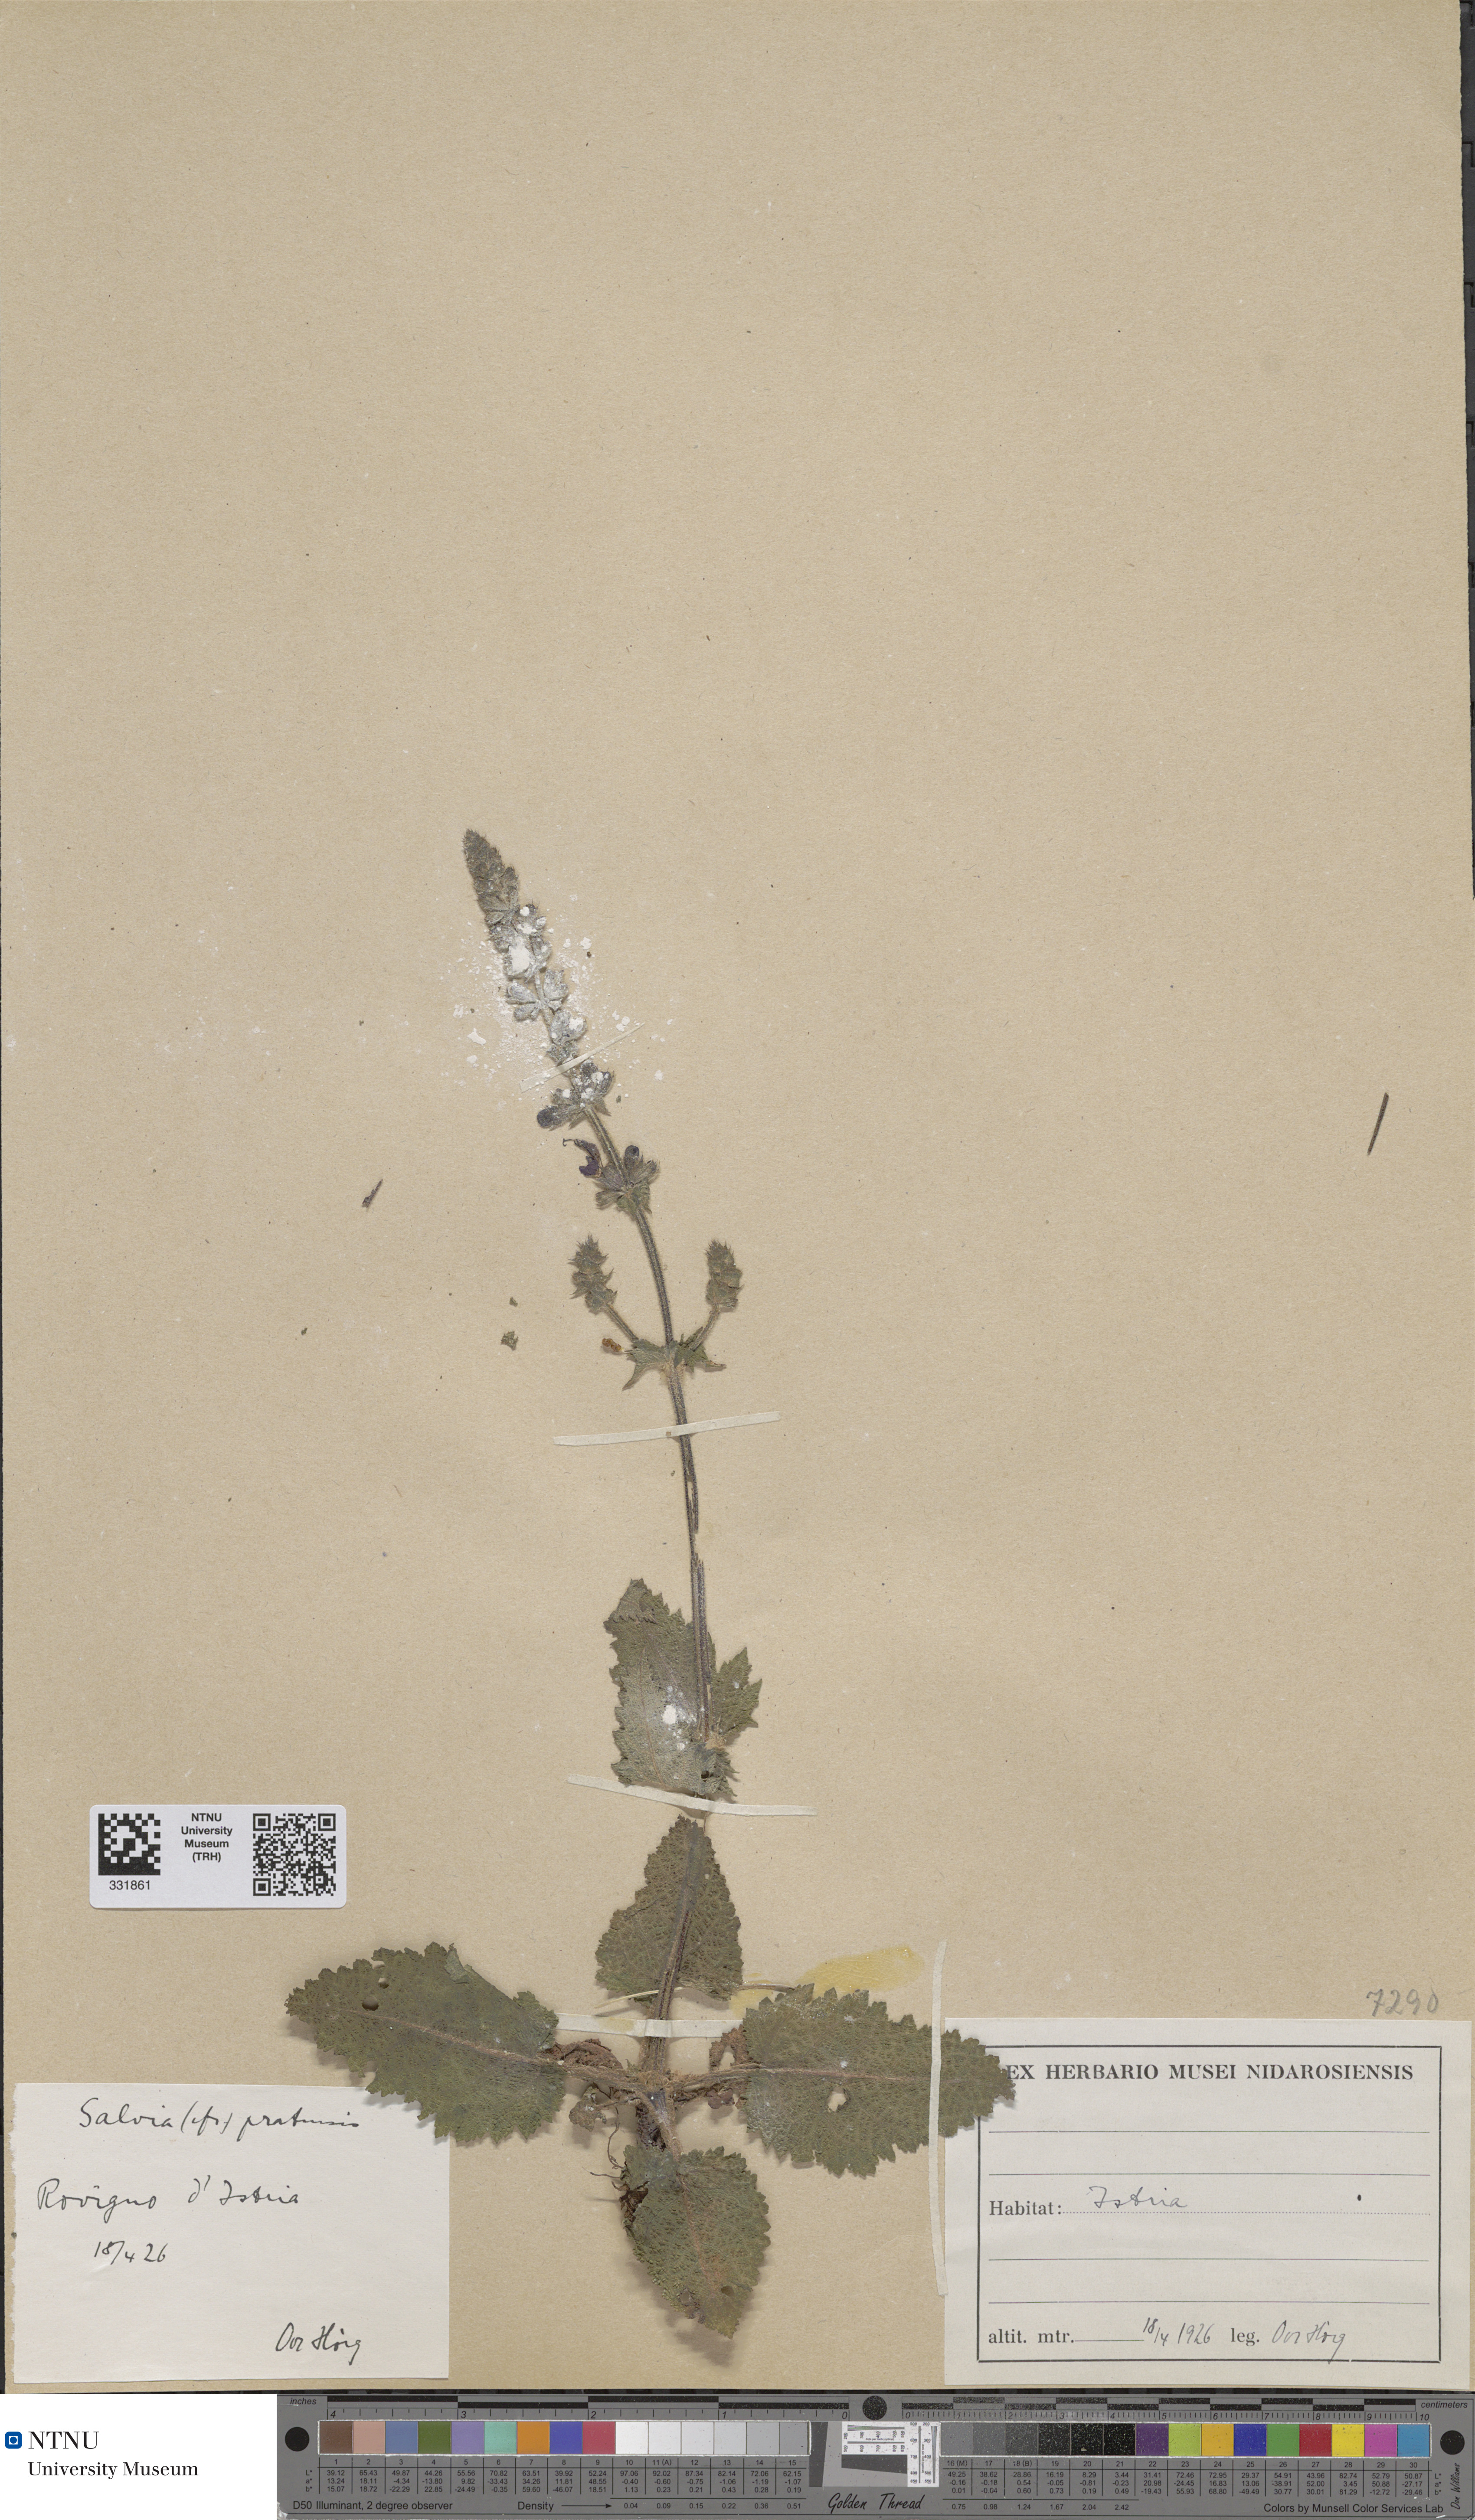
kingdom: Plantae
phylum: Tracheophyta
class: Magnoliopsida
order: Lamiales
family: Lamiaceae
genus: Salvia
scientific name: Salvia pratensis
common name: Meadow sage
